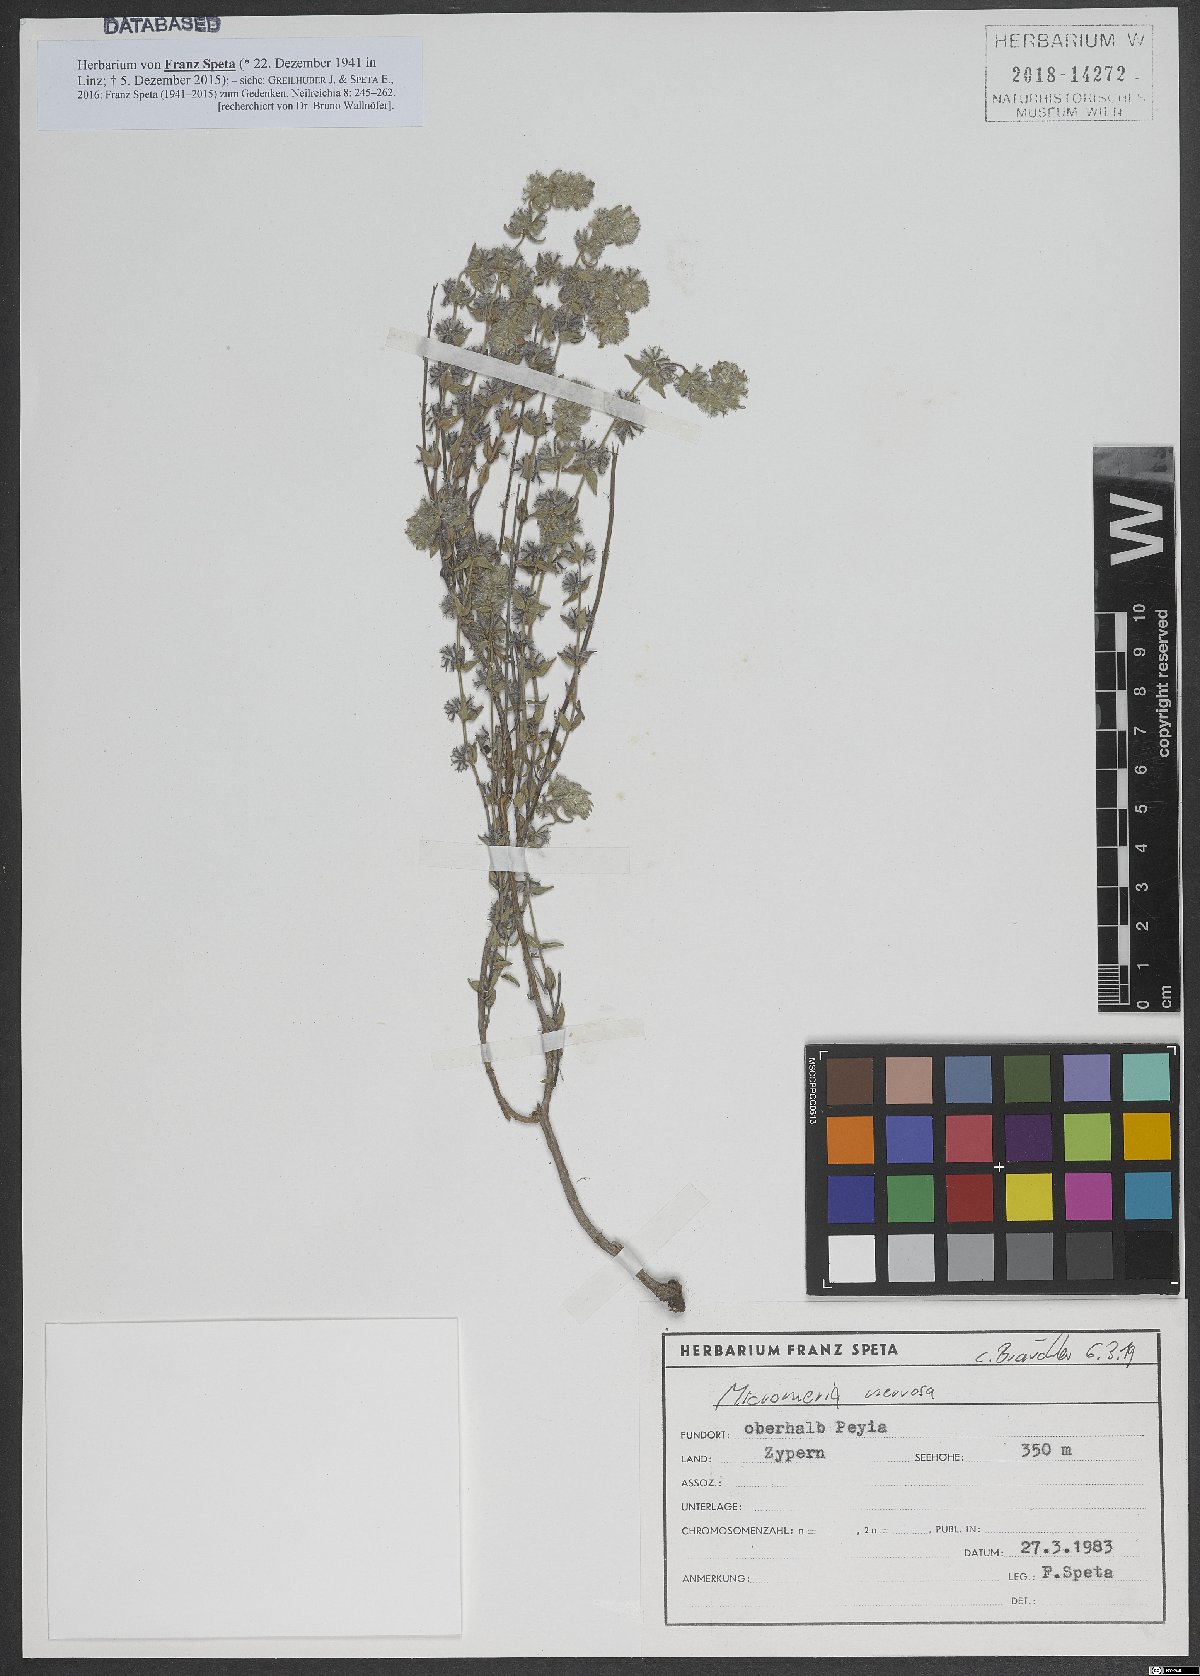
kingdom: Plantae
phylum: Tracheophyta
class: Magnoliopsida
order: Lamiales
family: Lamiaceae
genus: Micromeria
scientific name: Micromeria nervosa
